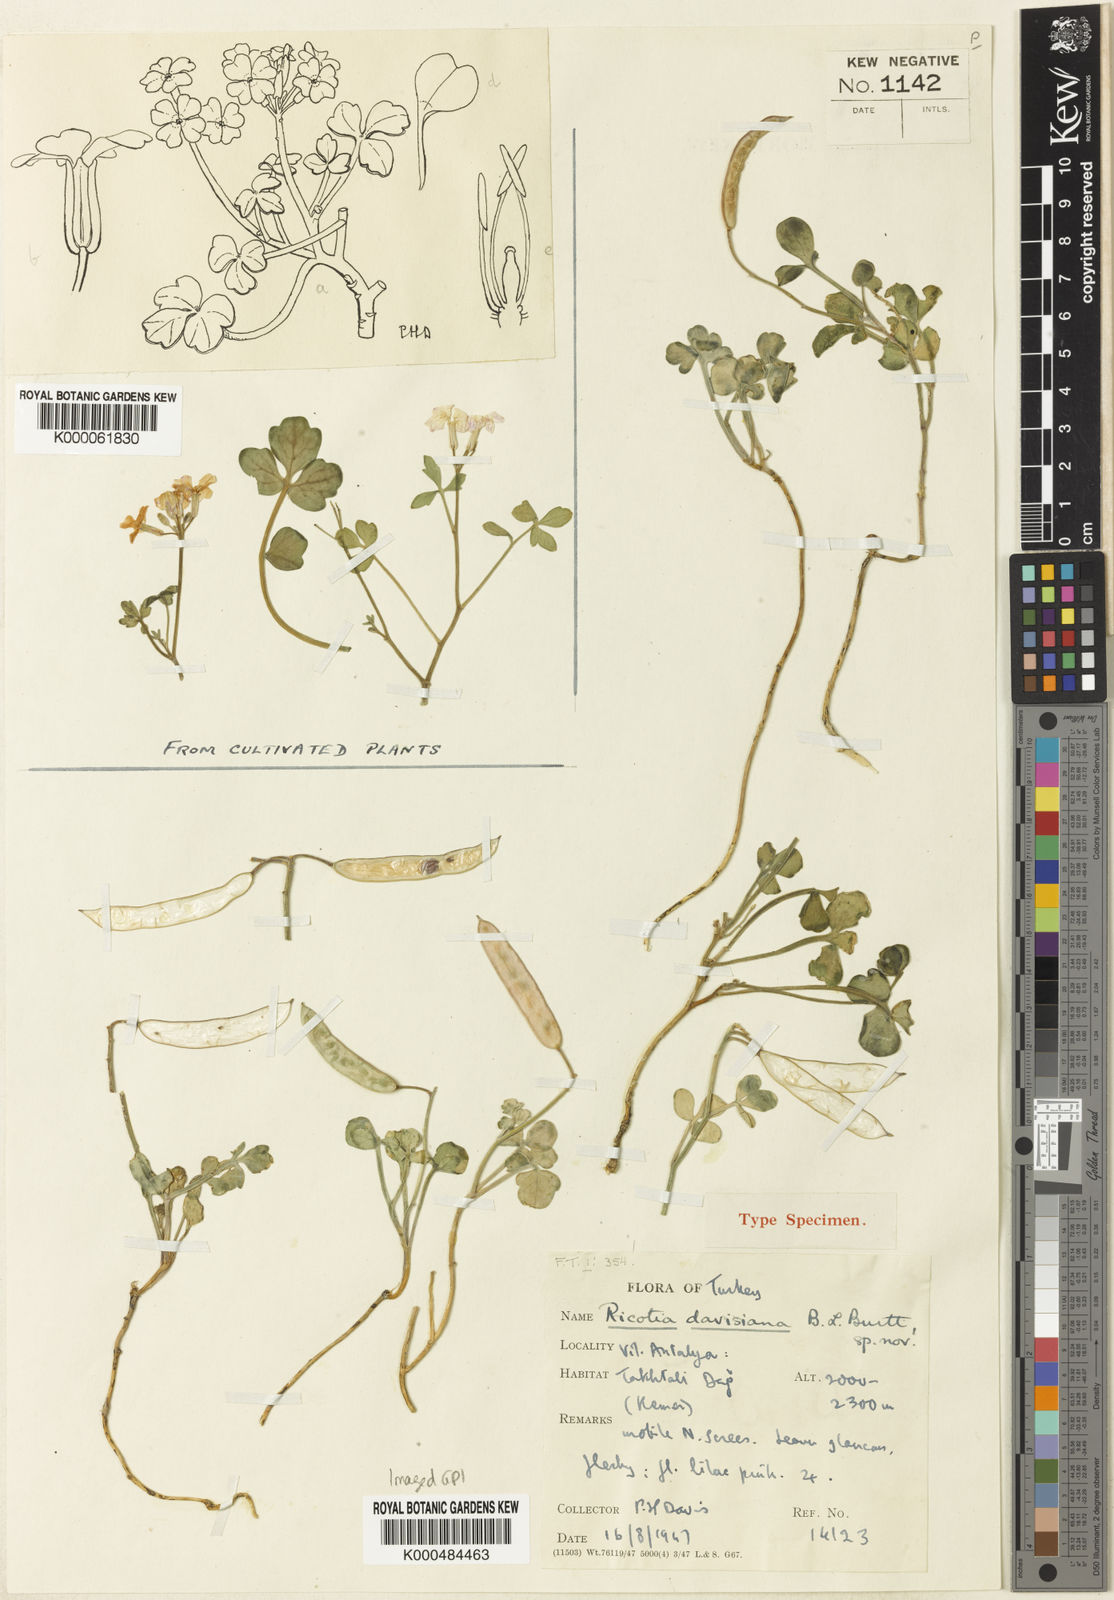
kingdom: Plantae
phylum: Tracheophyta
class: Magnoliopsida
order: Brassicales
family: Brassicaceae
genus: Ricotia
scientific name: Ricotia davisiana
